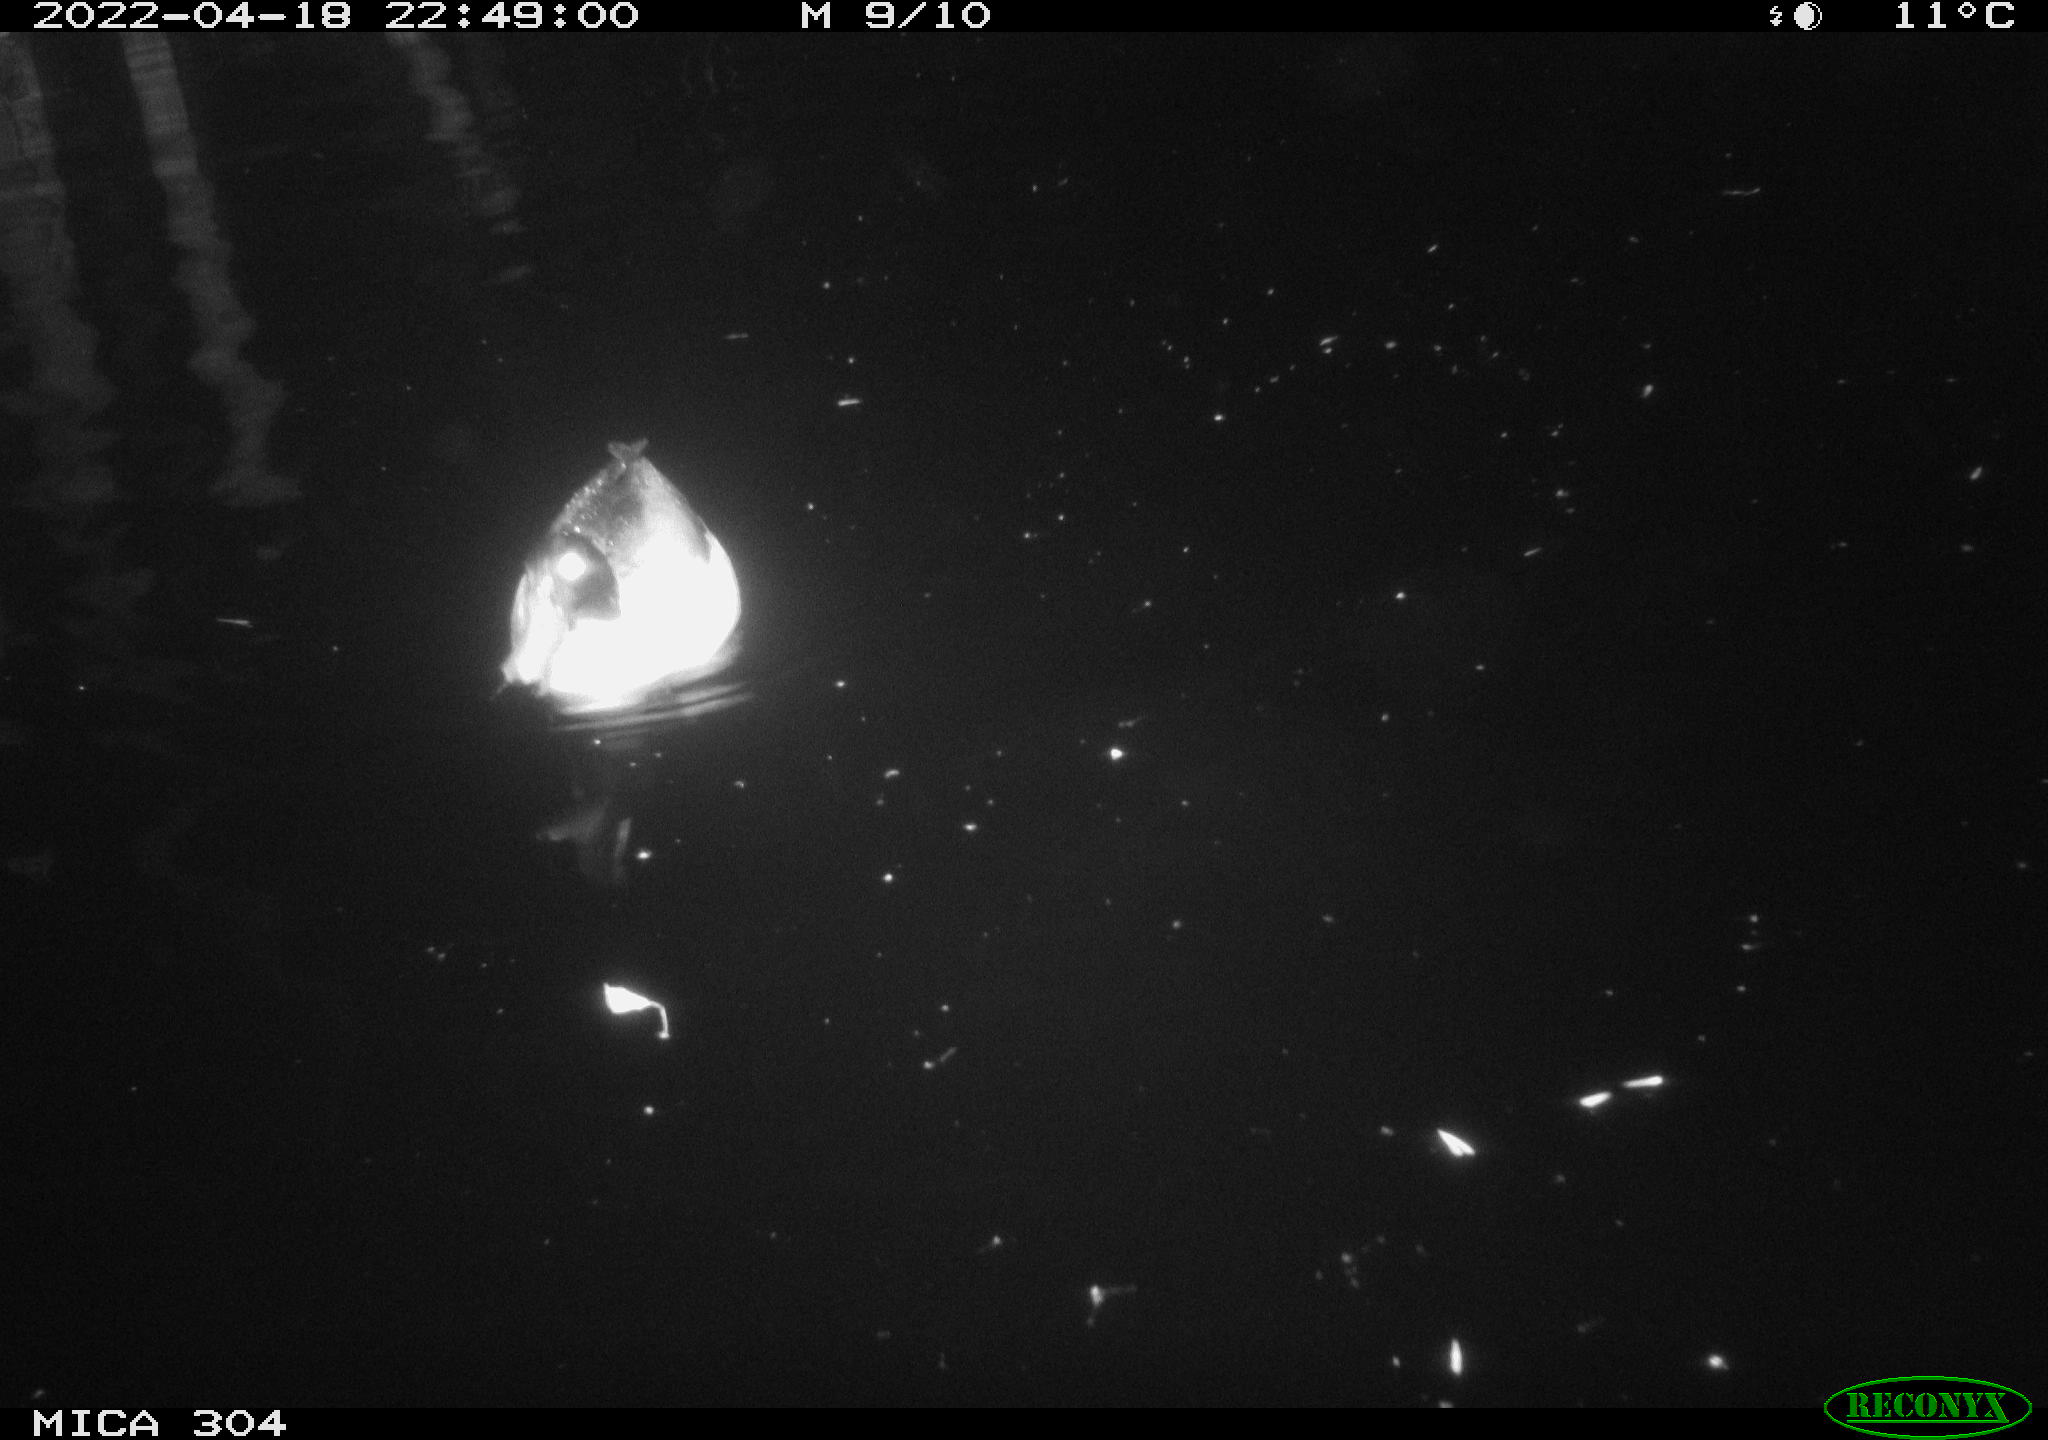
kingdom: Animalia
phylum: Chordata
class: Aves
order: Anseriformes
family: Anatidae
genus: Mareca
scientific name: Mareca strepera
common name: Gadwall
